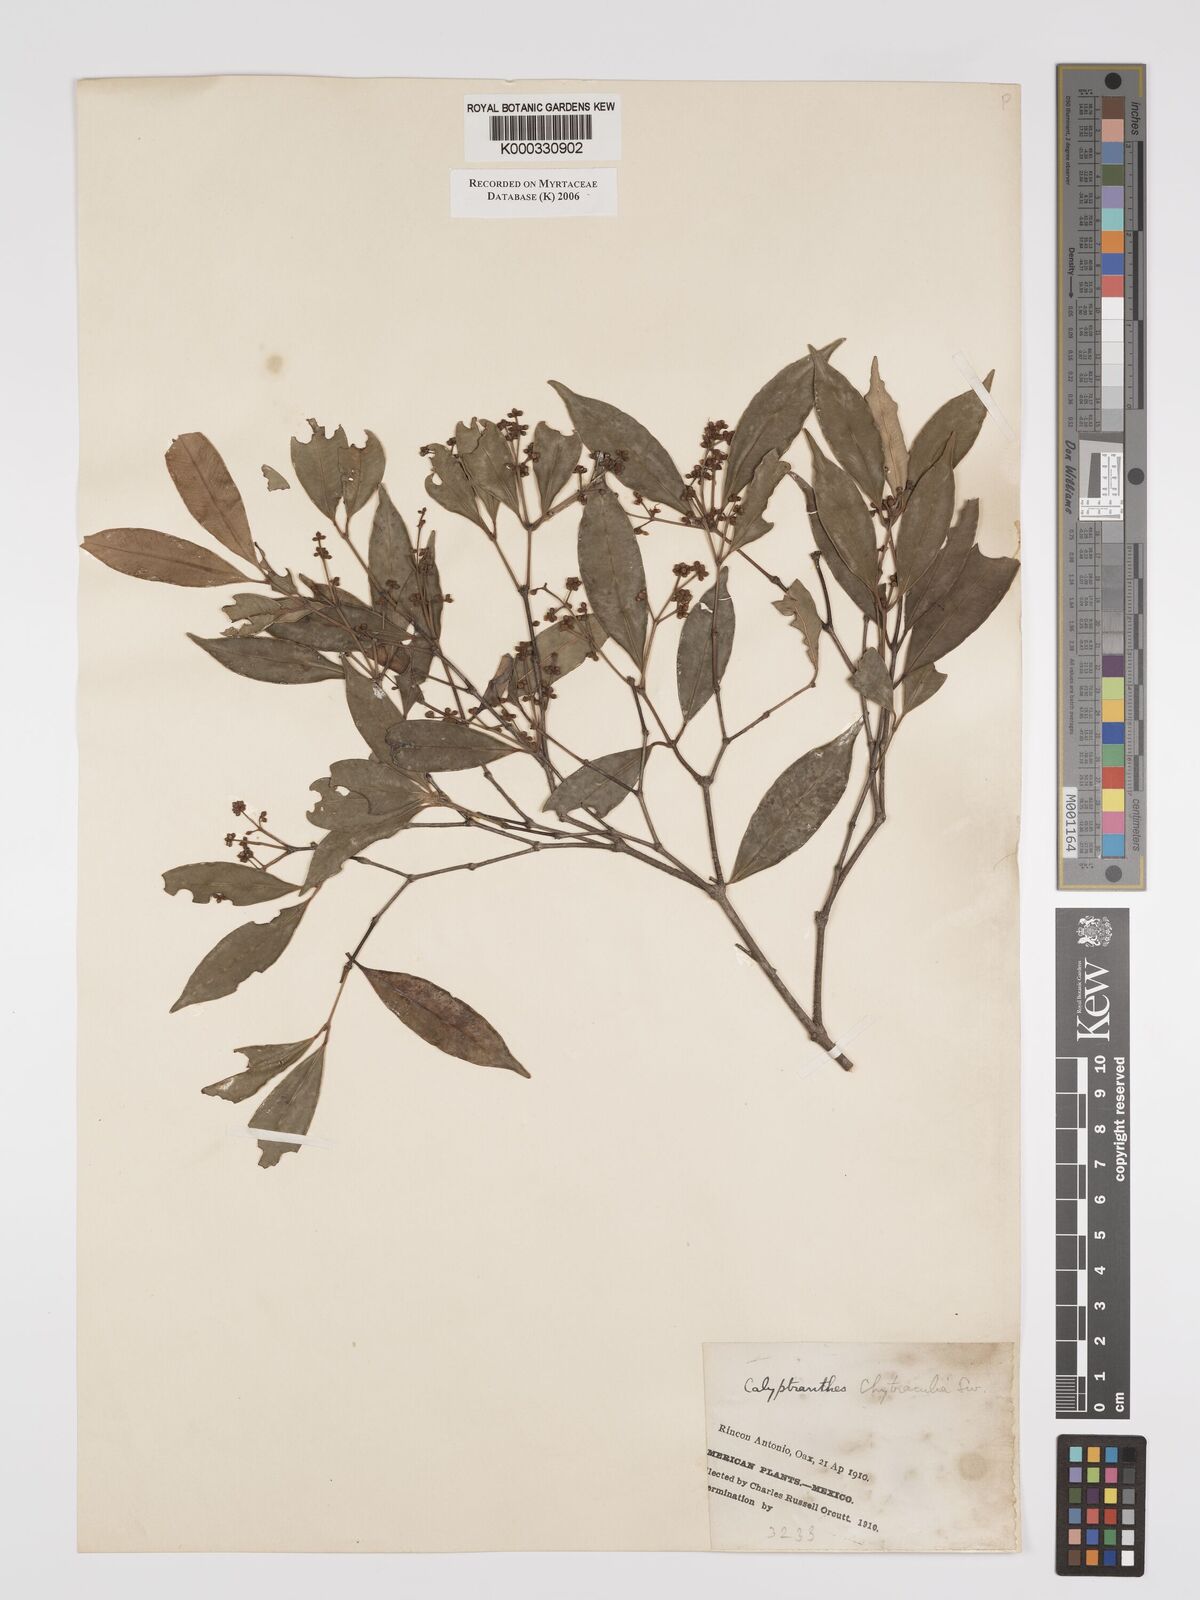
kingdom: Plantae
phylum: Tracheophyta
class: Magnoliopsida
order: Myrtales
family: Myrtaceae
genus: Myrcia
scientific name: Myrcia neolindeniana
